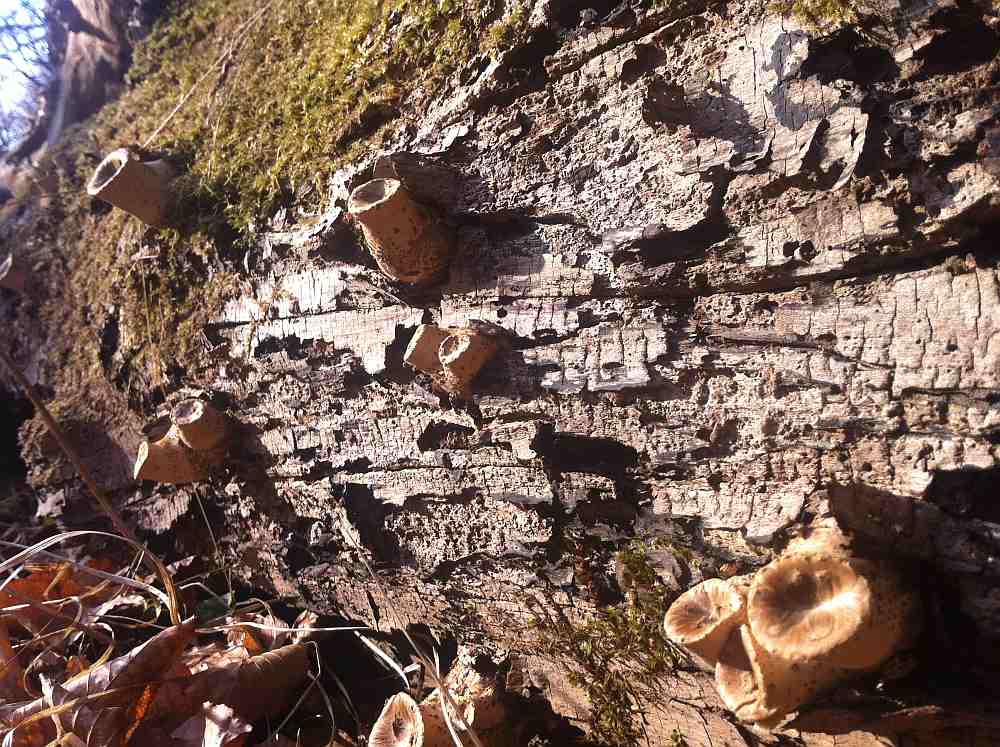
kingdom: Fungi
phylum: Basidiomycota
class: Agaricomycetes
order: Polyporales
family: Polyporaceae
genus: Cerioporus
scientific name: Cerioporus squamosus
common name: skællet stilkporesvamp
